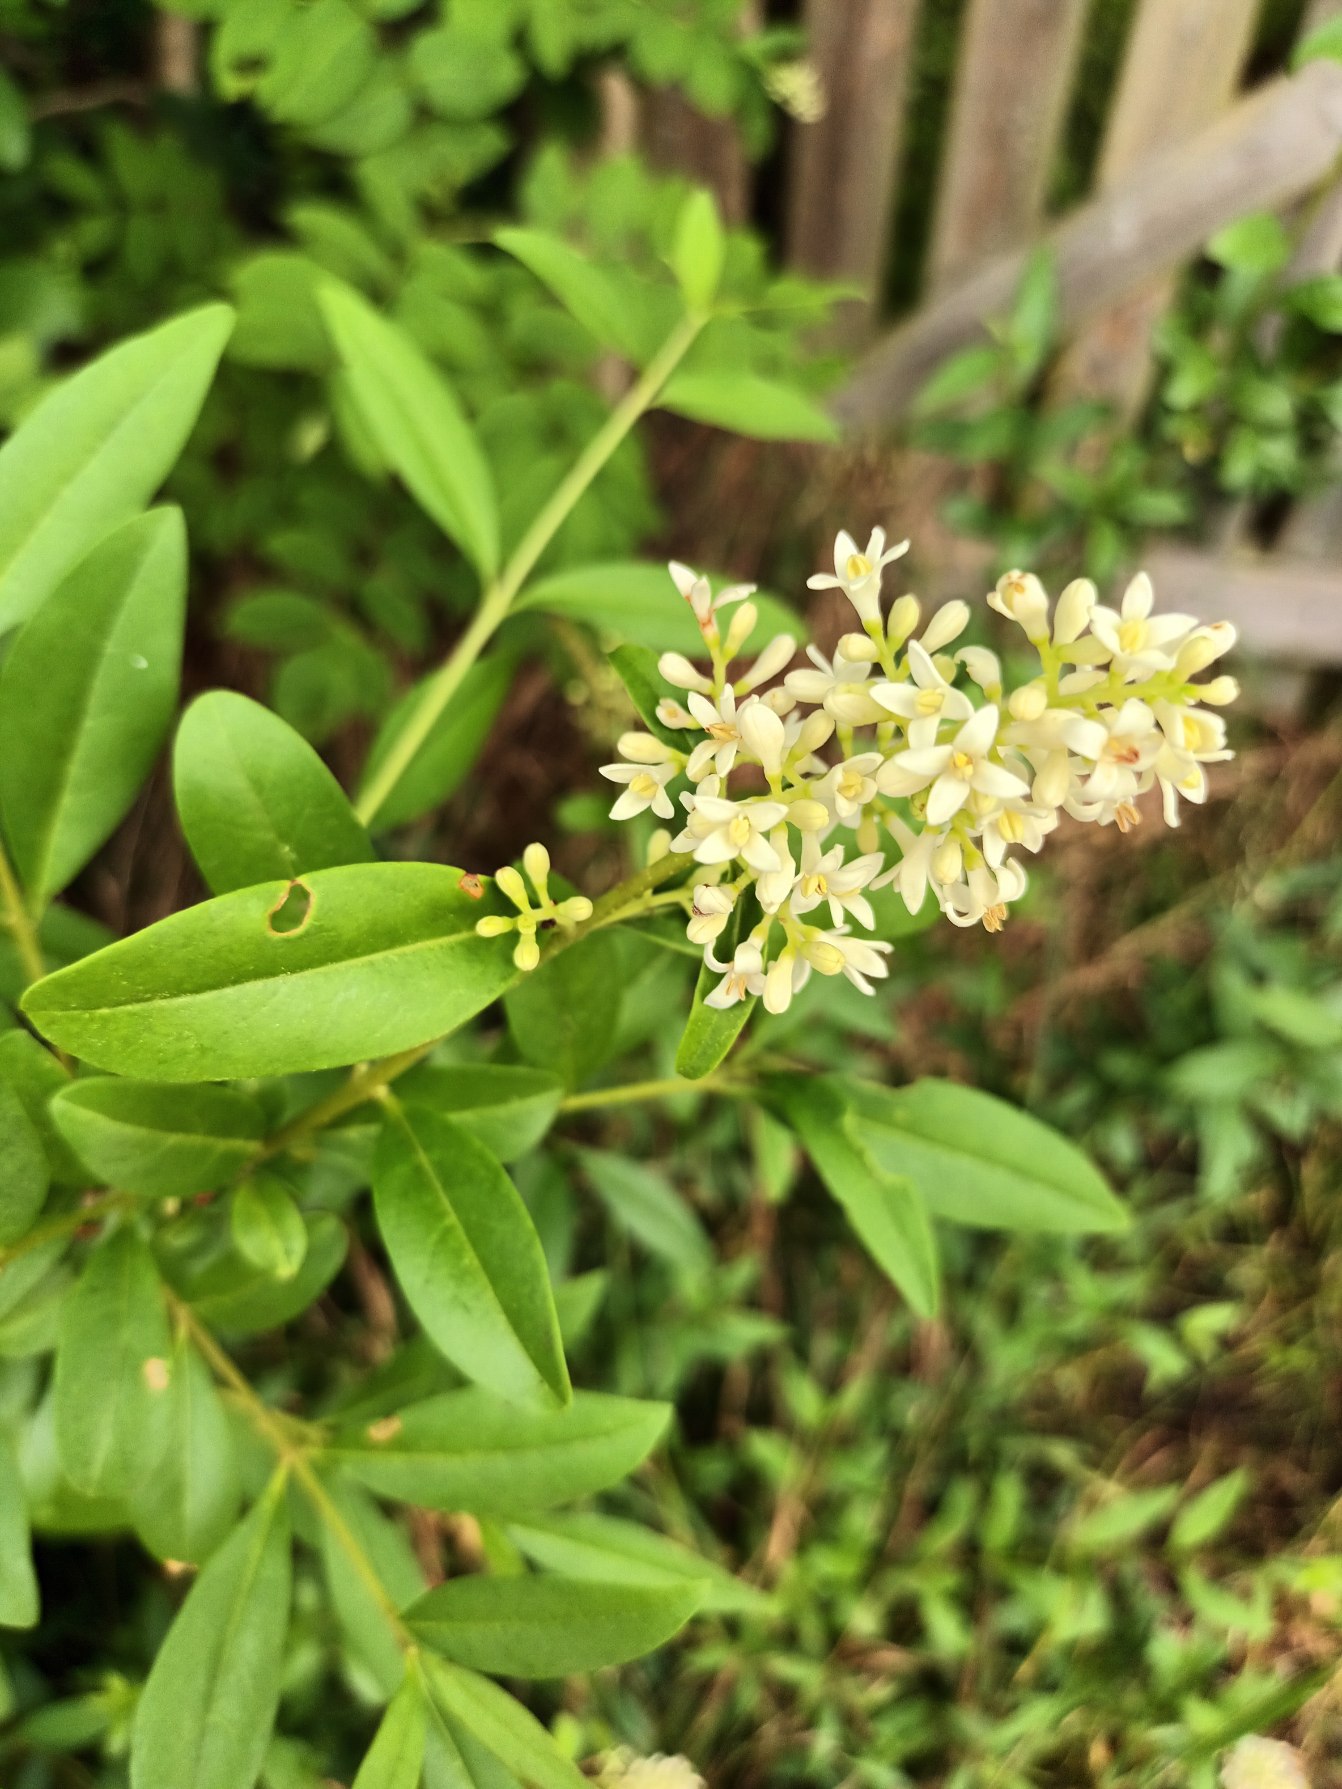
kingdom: Plantae
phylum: Tracheophyta
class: Magnoliopsida
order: Lamiales
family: Oleaceae
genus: Ligustrum
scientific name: Ligustrum vulgare
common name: Liguster
